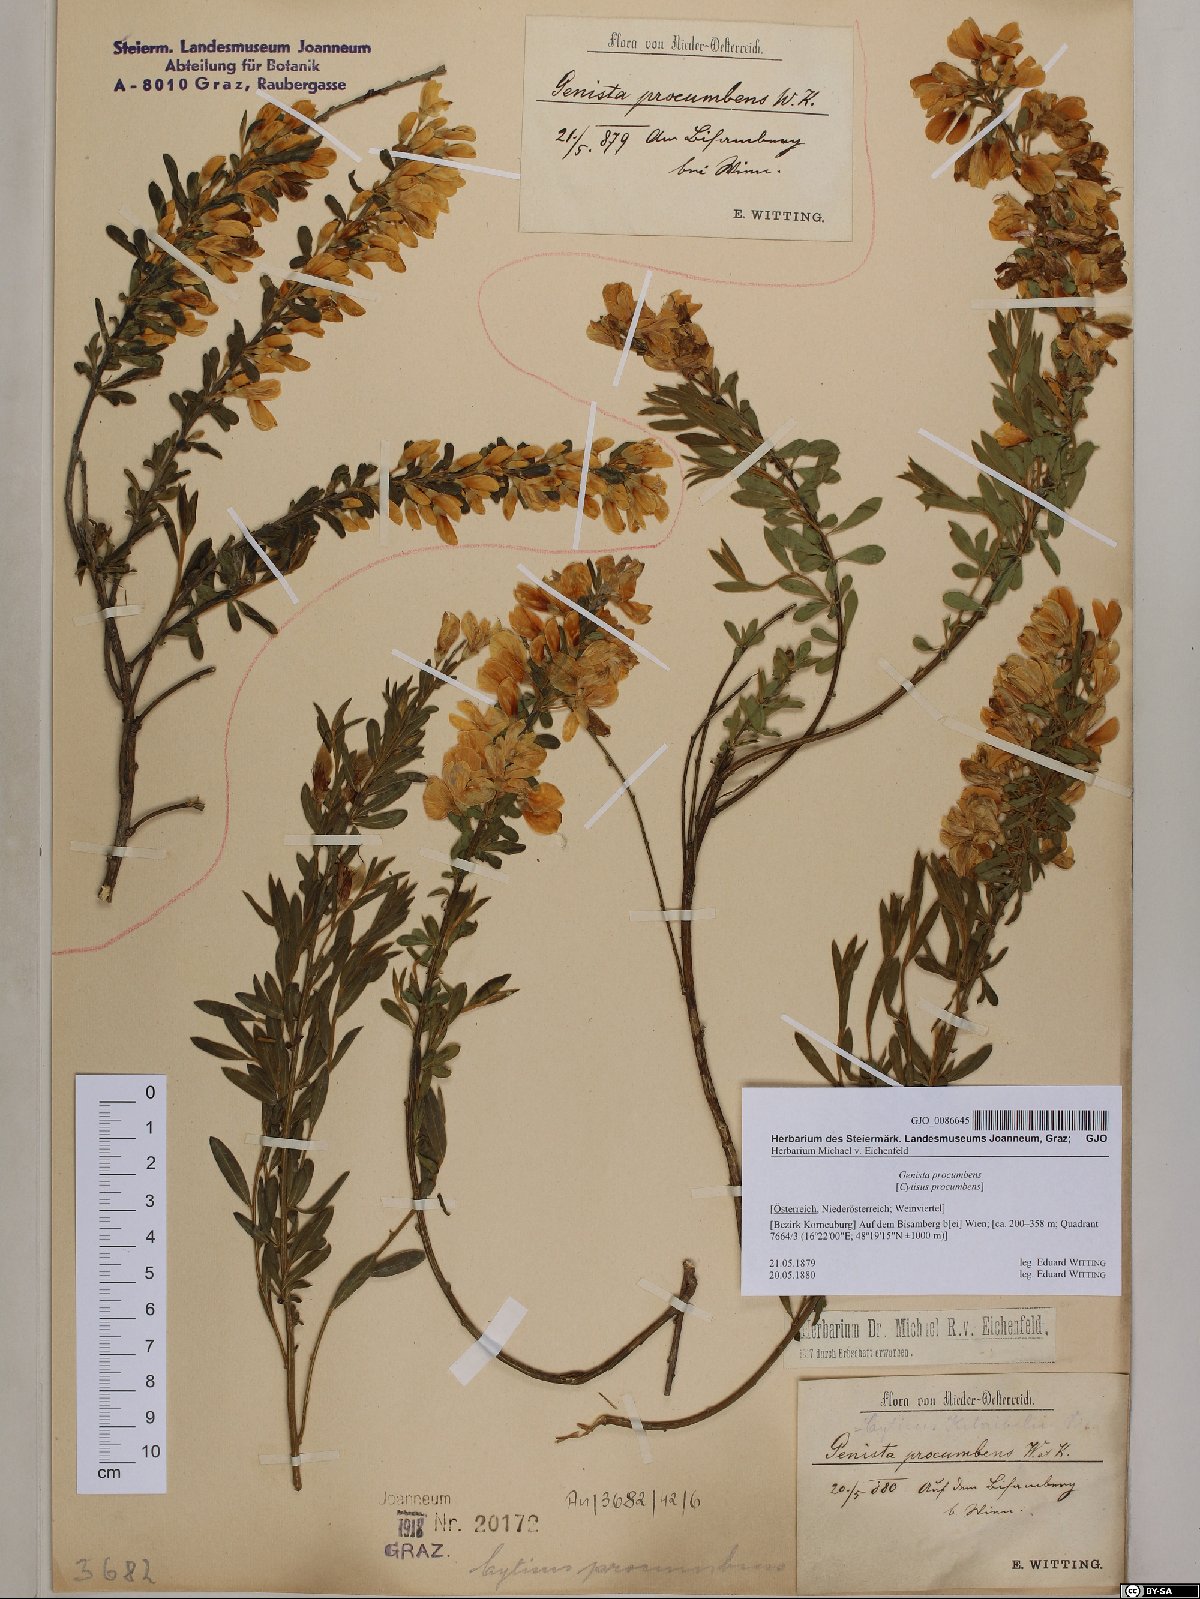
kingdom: Plantae
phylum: Tracheophyta
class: Magnoliopsida
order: Fabales
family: Fabaceae
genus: Cytisus
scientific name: Cytisus procumbens
